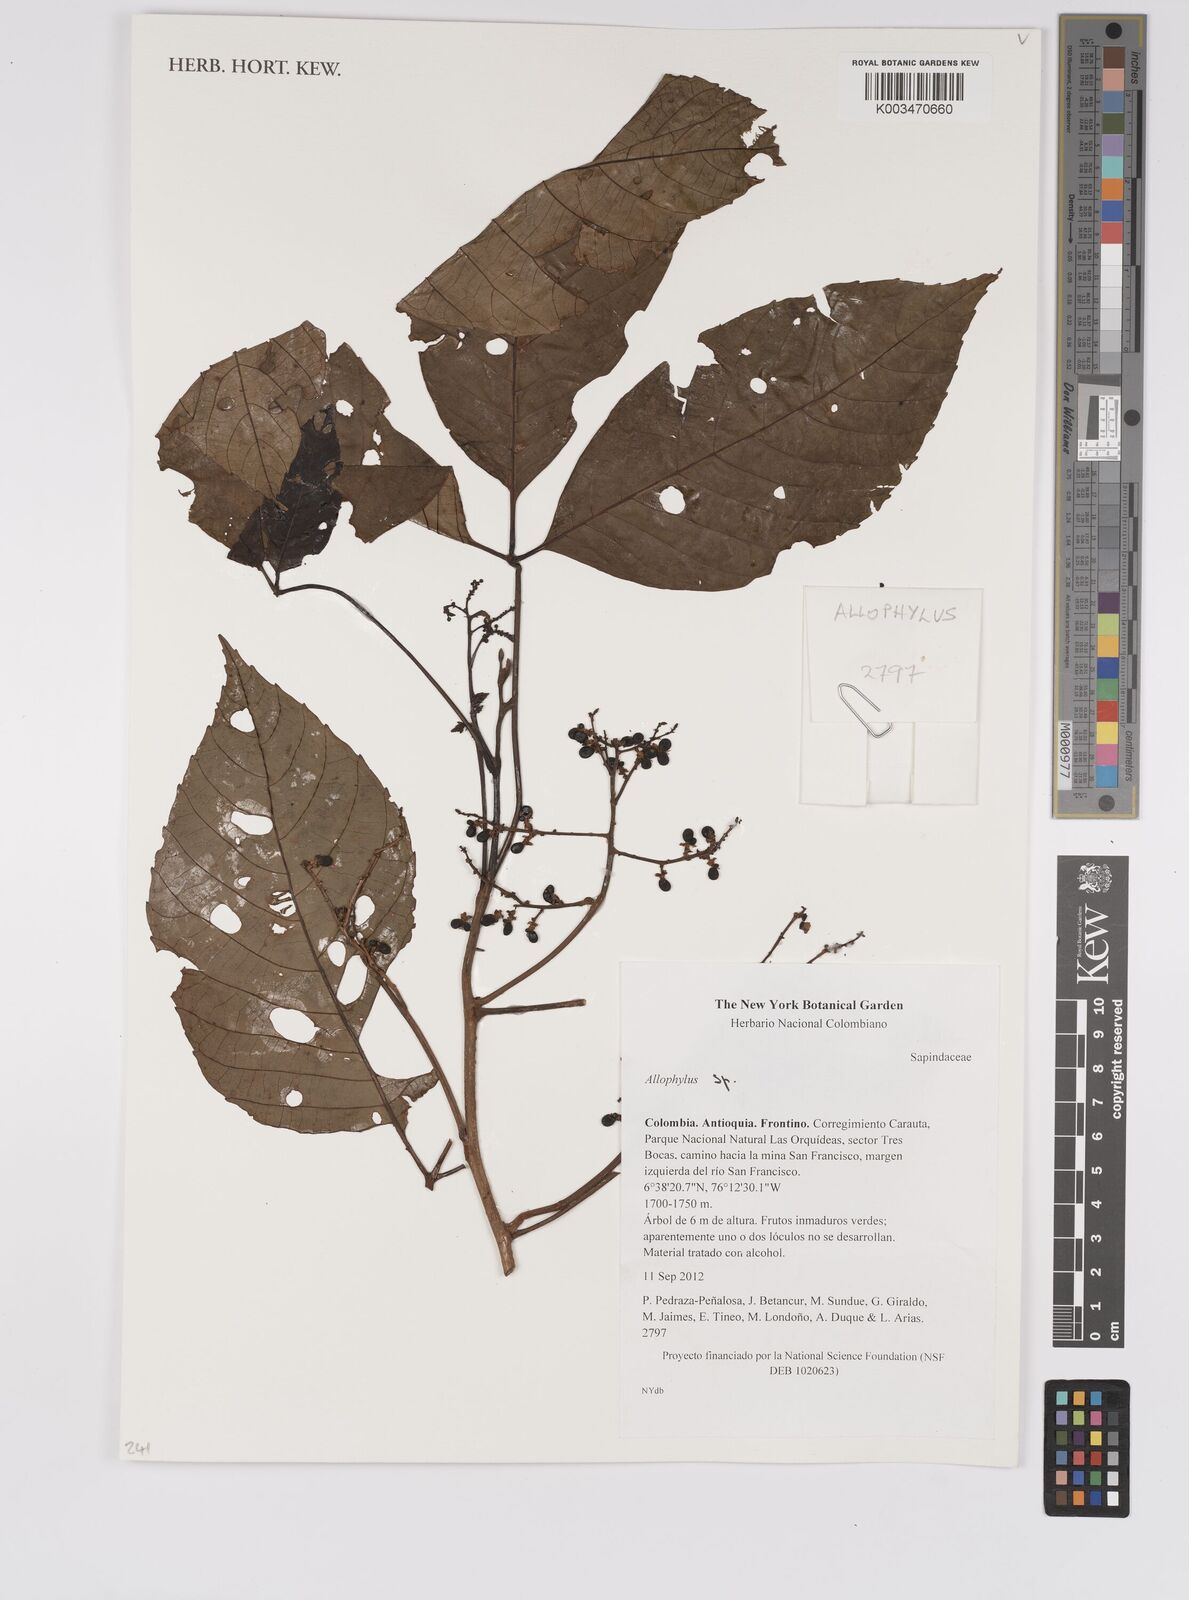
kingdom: Plantae
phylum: Tracheophyta
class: Magnoliopsida
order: Sapindales
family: Sapindaceae
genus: Allophylus
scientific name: Allophylus
